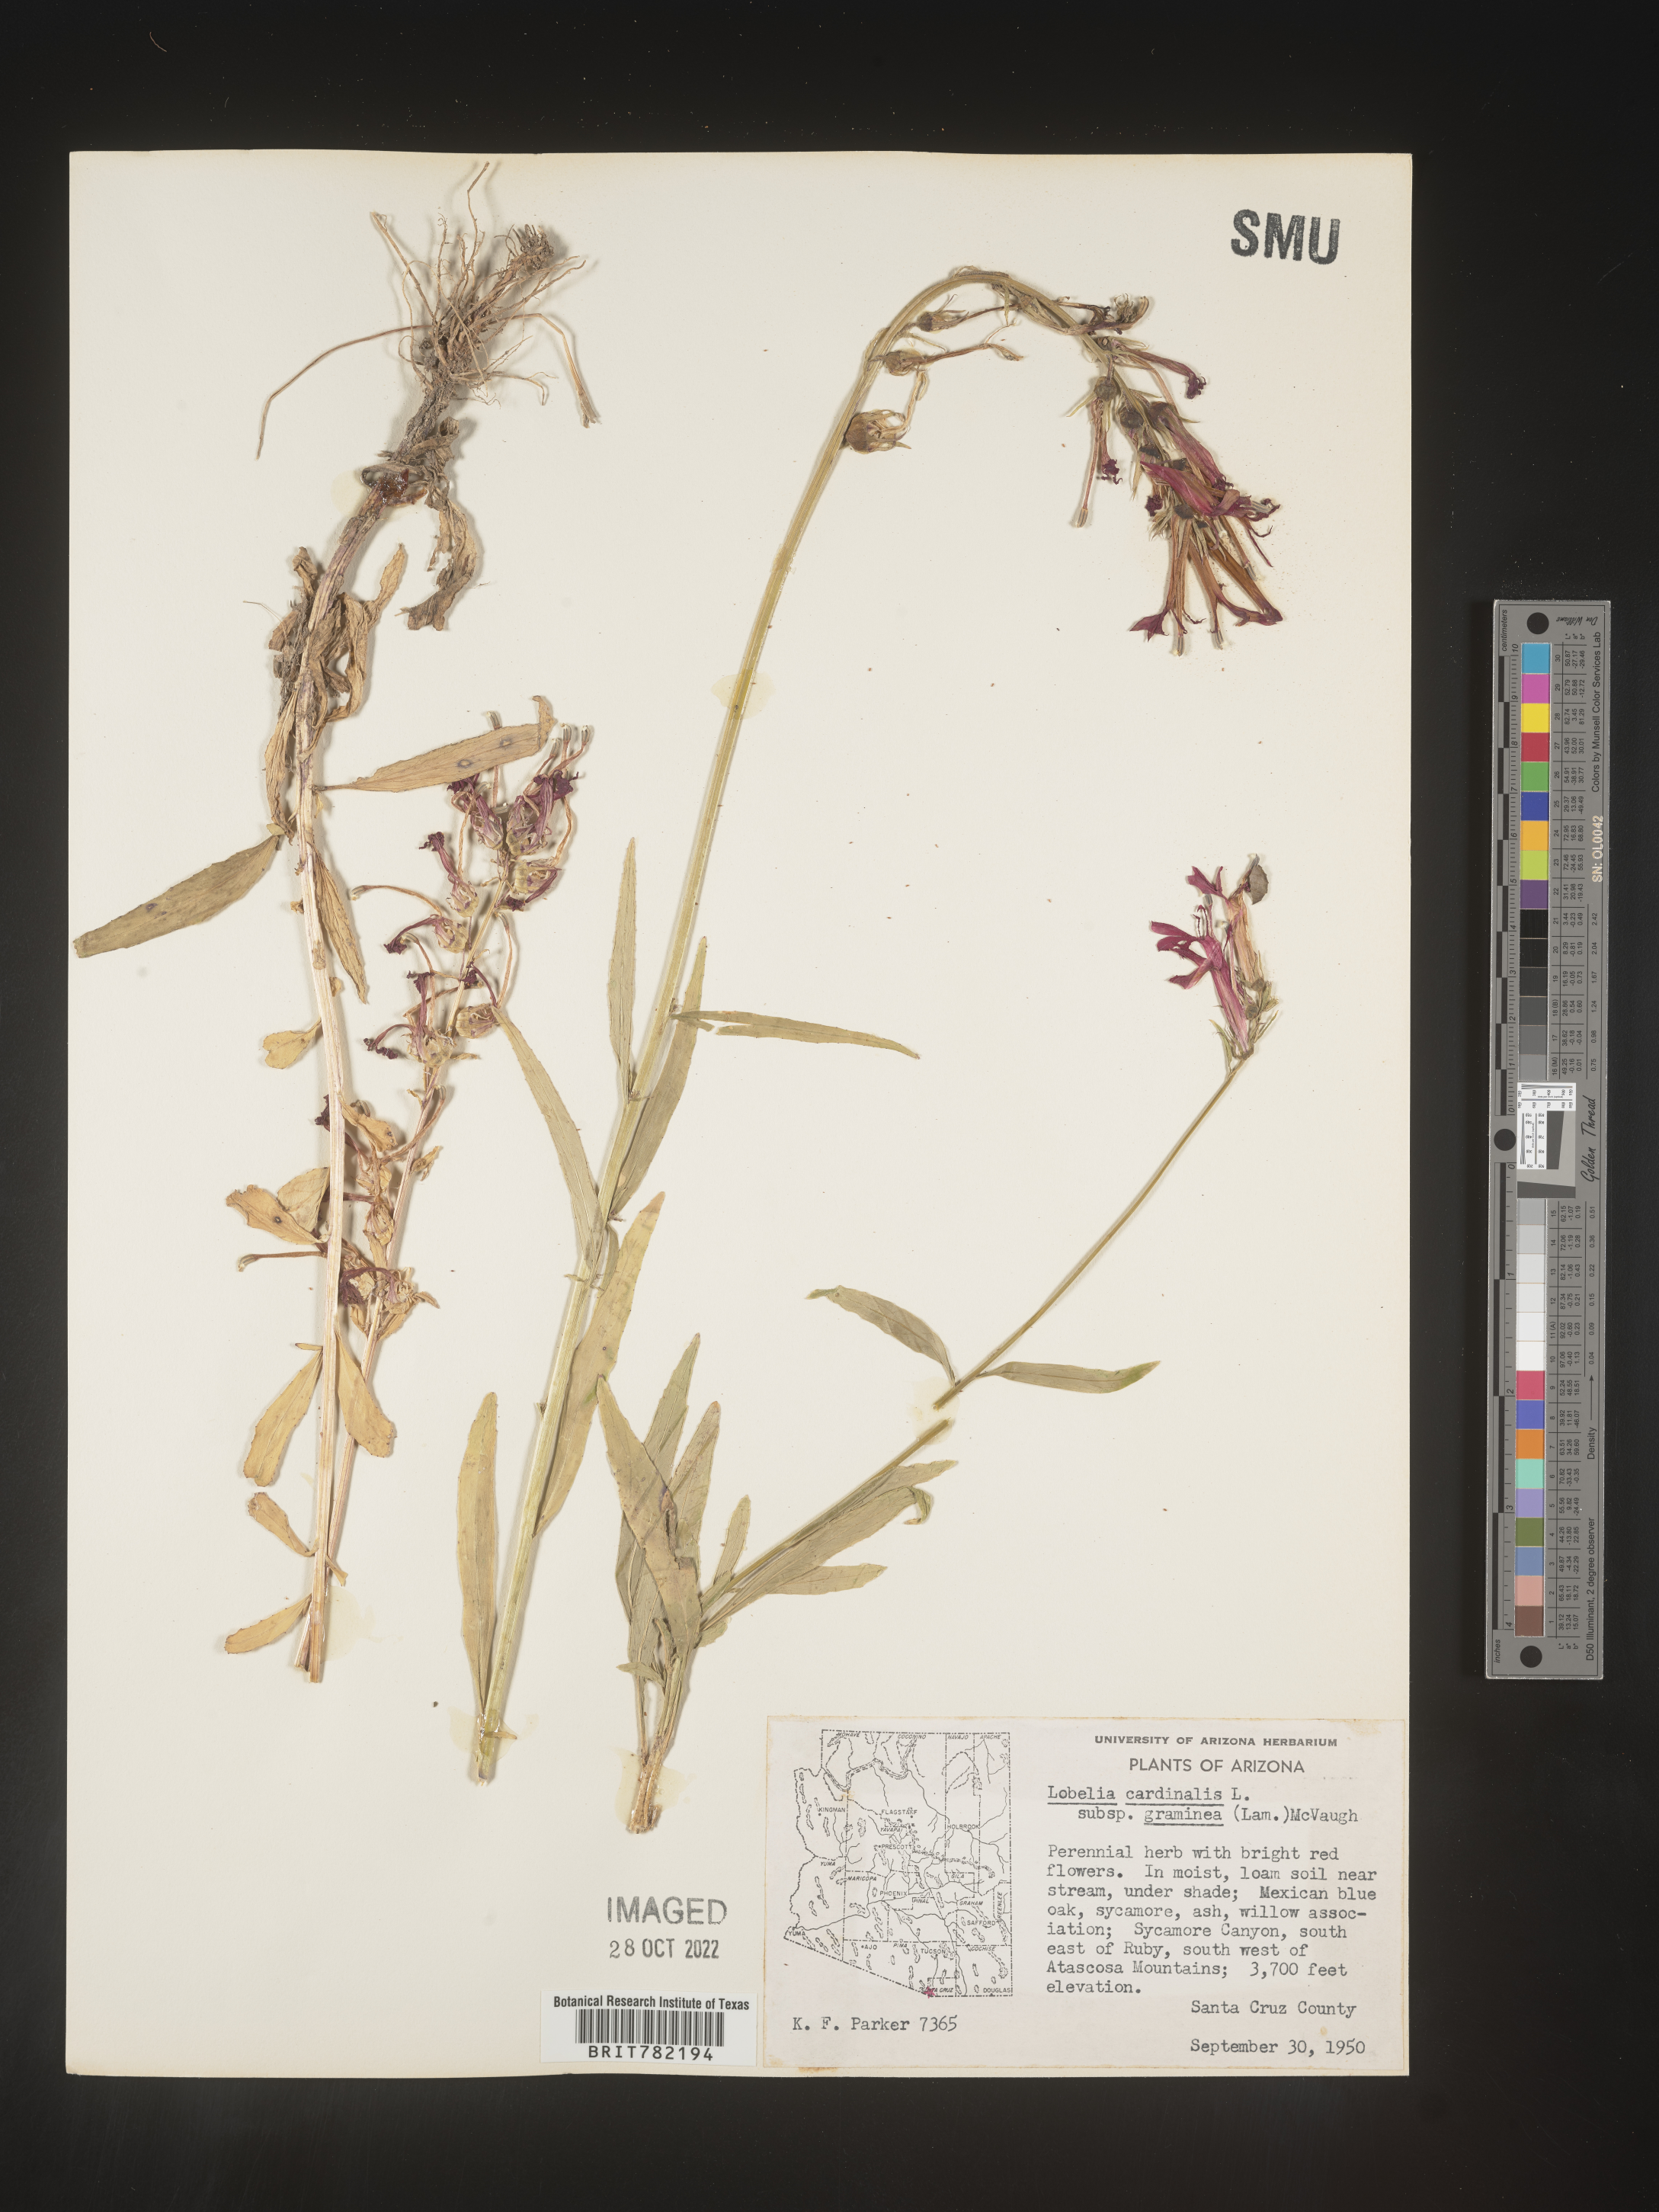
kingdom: Plantae
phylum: Tracheophyta
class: Magnoliopsida
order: Asterales
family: Campanulaceae
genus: Lobelia
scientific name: Lobelia cardinalis
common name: Cardinal flower
